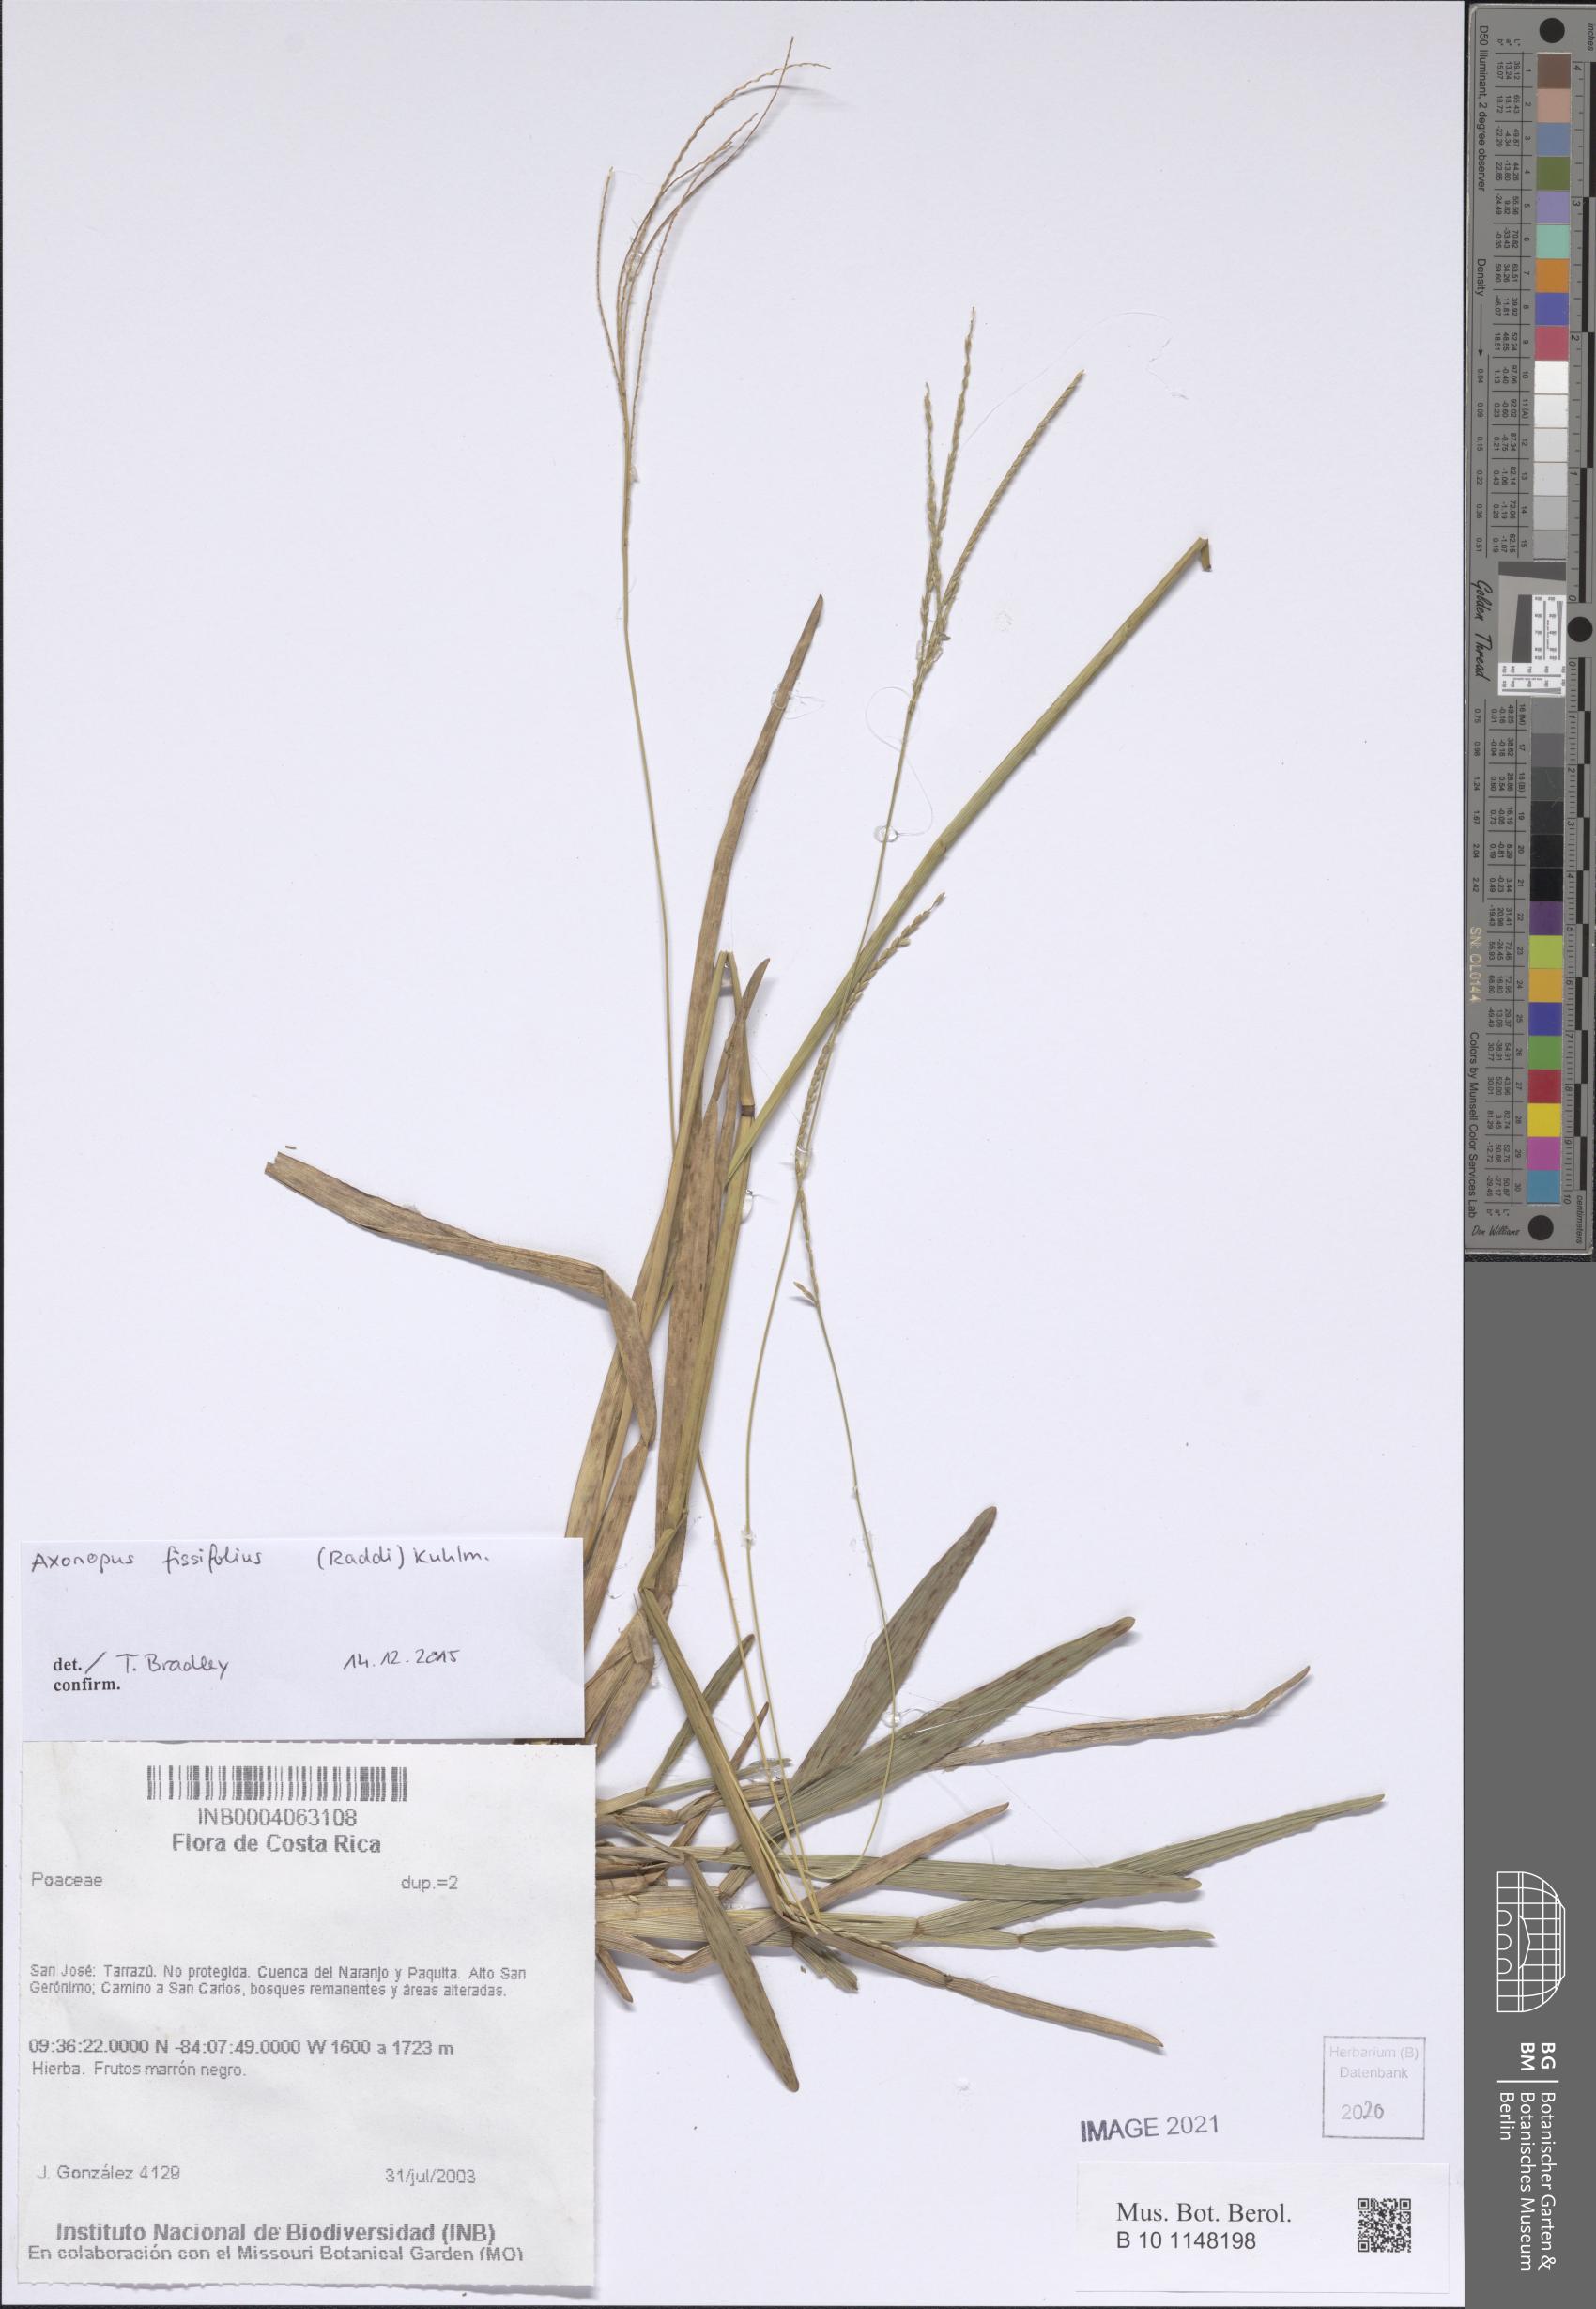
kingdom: Plantae
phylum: Tracheophyta
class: Liliopsida
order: Poales
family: Poaceae
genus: Axonopus
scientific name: Axonopus fissifolius
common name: Common carpetgrass
